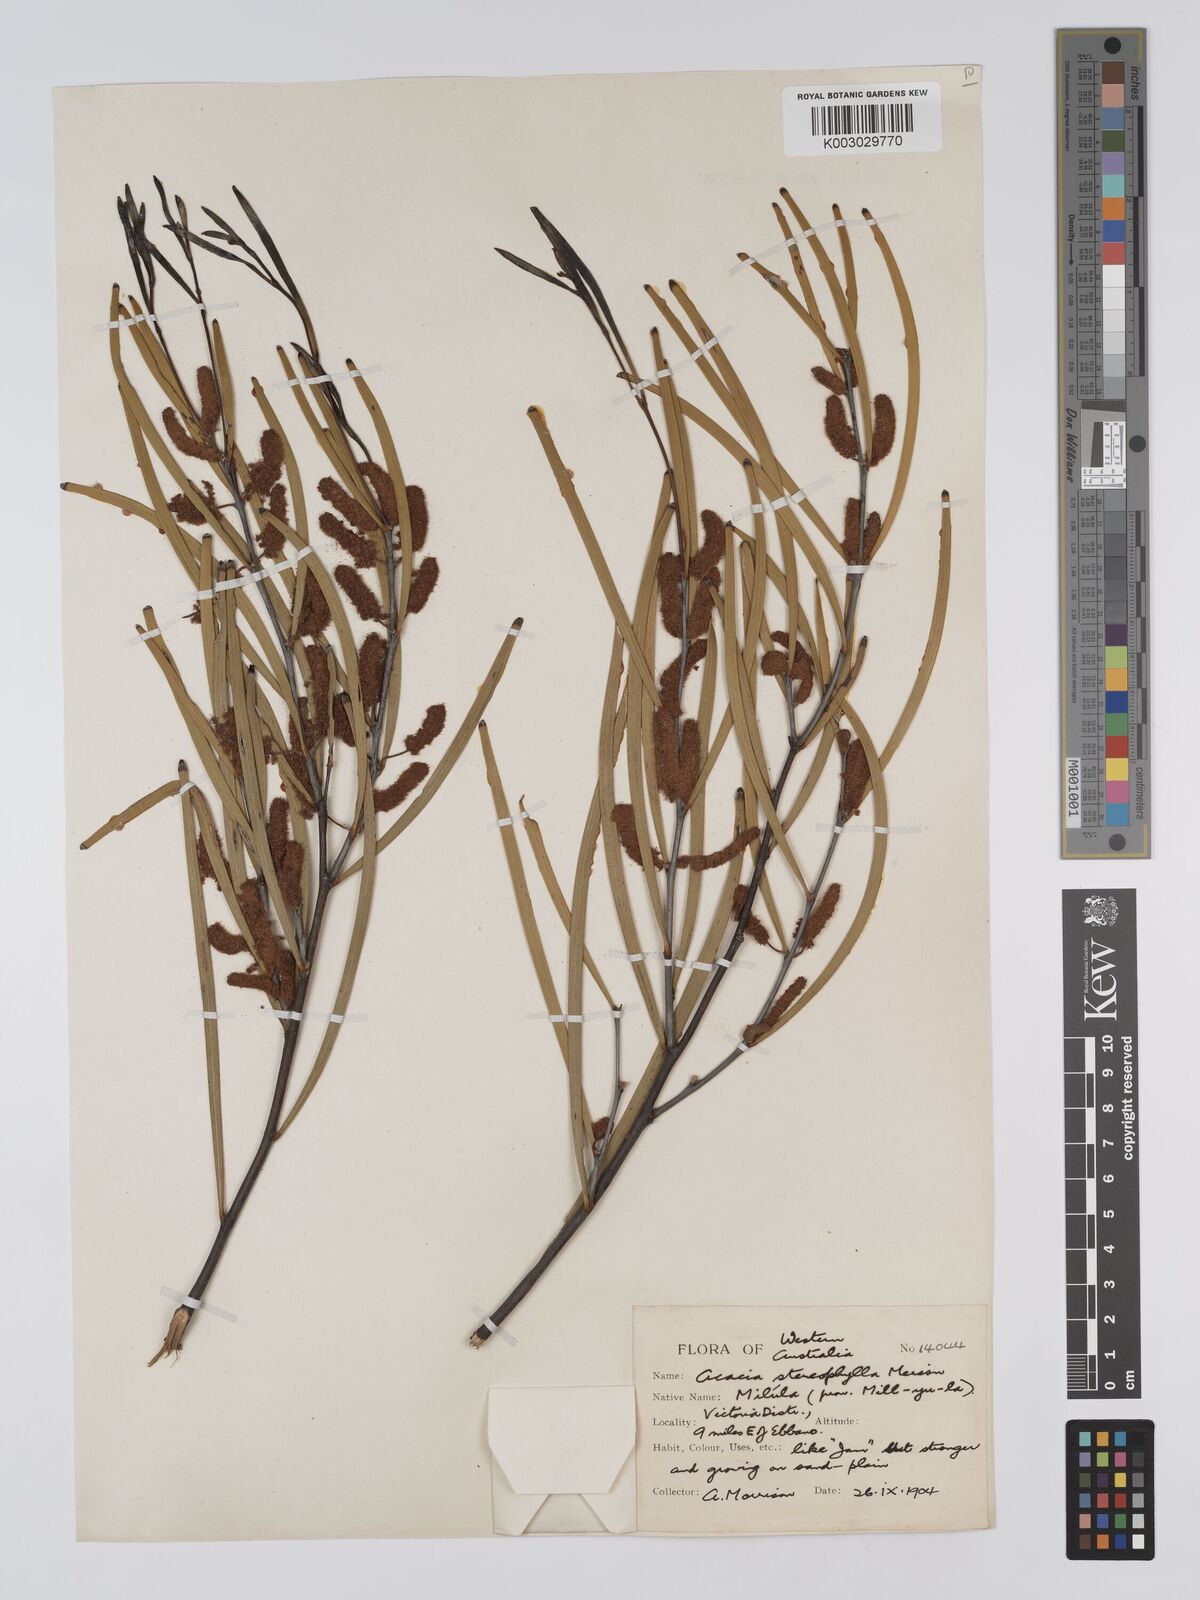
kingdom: Plantae
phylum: Tracheophyta
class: Magnoliopsida
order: Fabales
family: Fabaceae
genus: Acacia
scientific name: Acacia stereophylla
